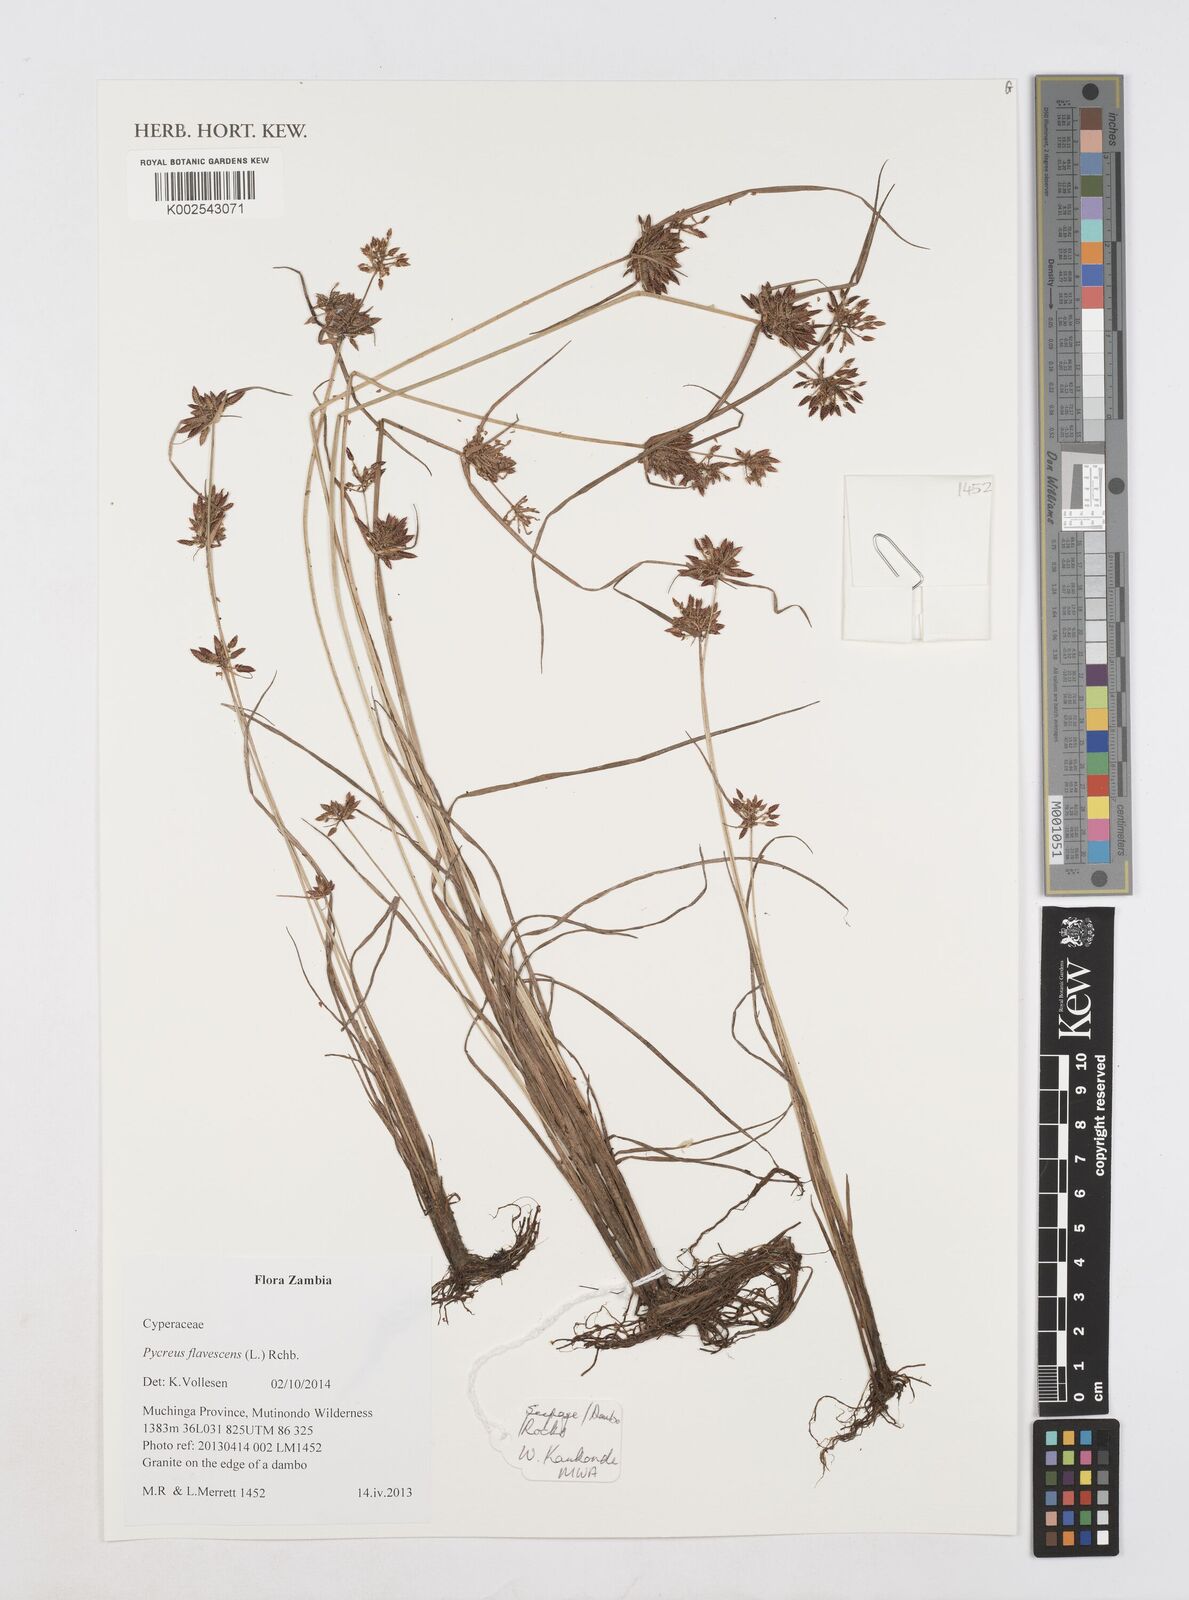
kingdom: Plantae
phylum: Tracheophyta
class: Liliopsida
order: Poales
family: Cyperaceae
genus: Cyperus
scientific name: Cyperus flavescens
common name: Yellow galingale
